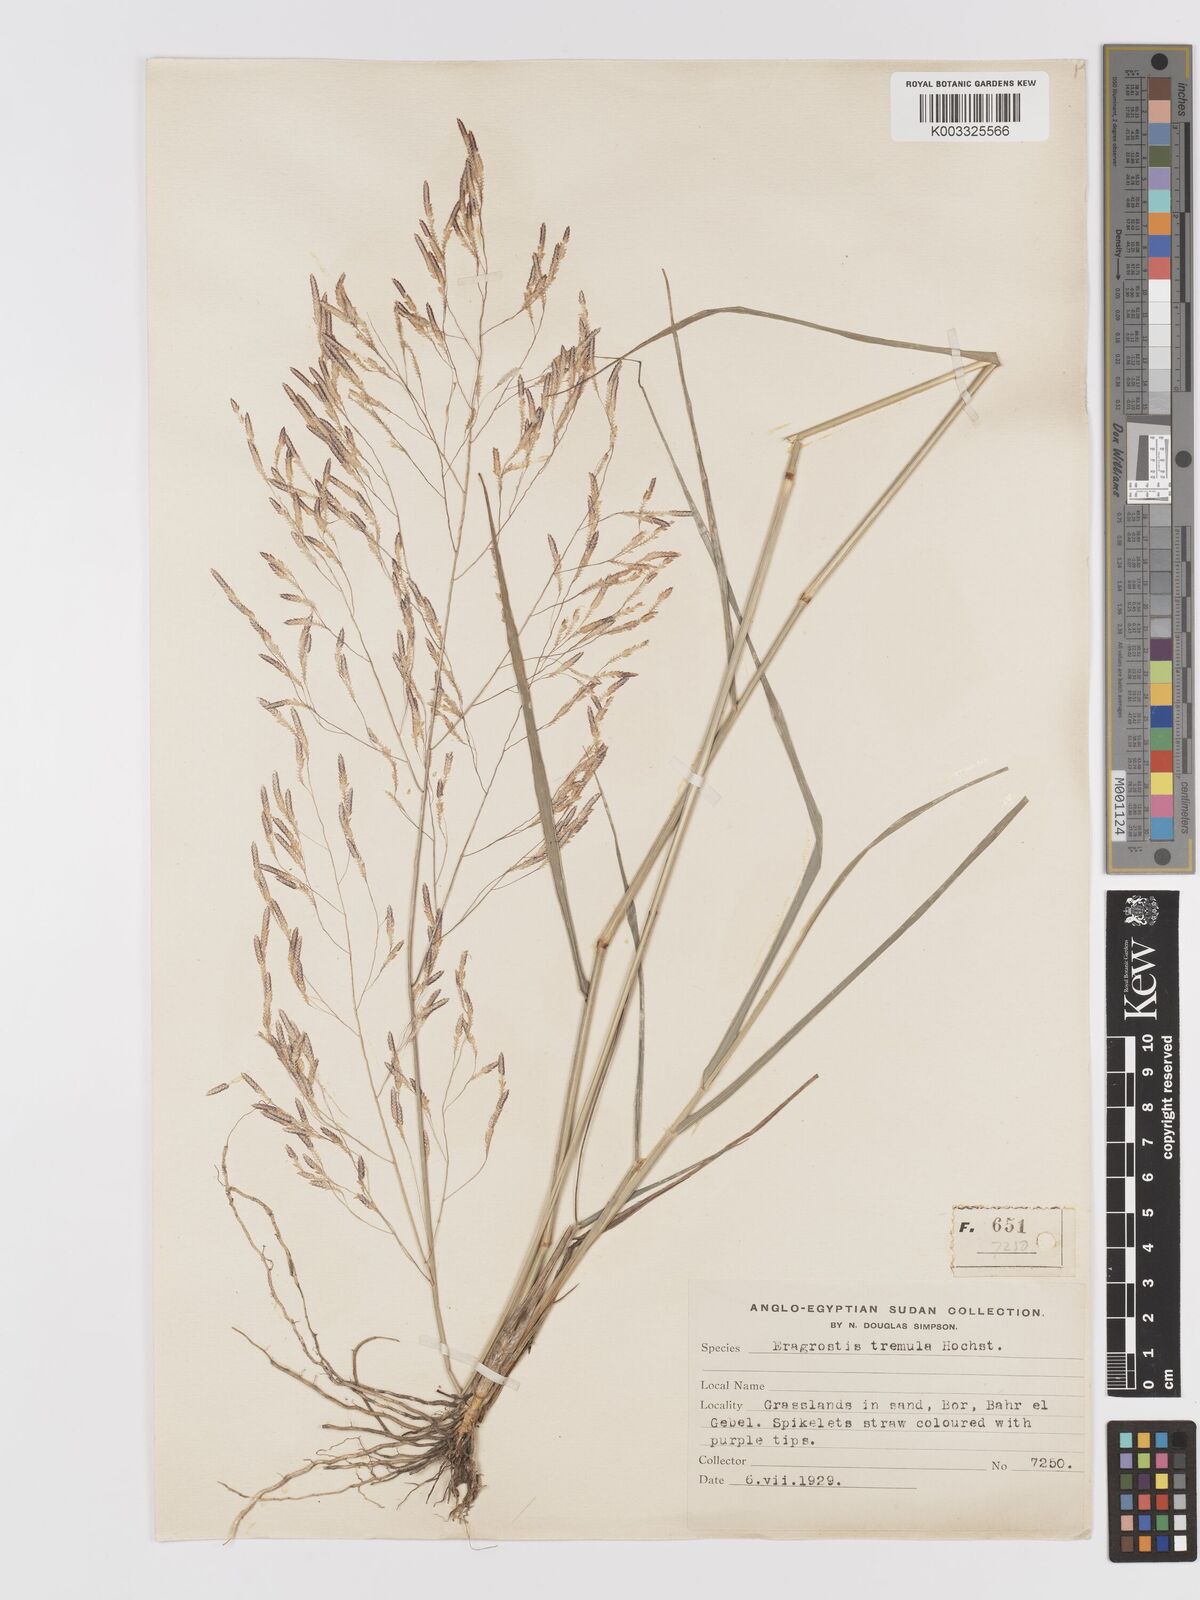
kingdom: Plantae
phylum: Tracheophyta
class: Liliopsida
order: Poales
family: Poaceae
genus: Eragrostis
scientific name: Eragrostis tremula
